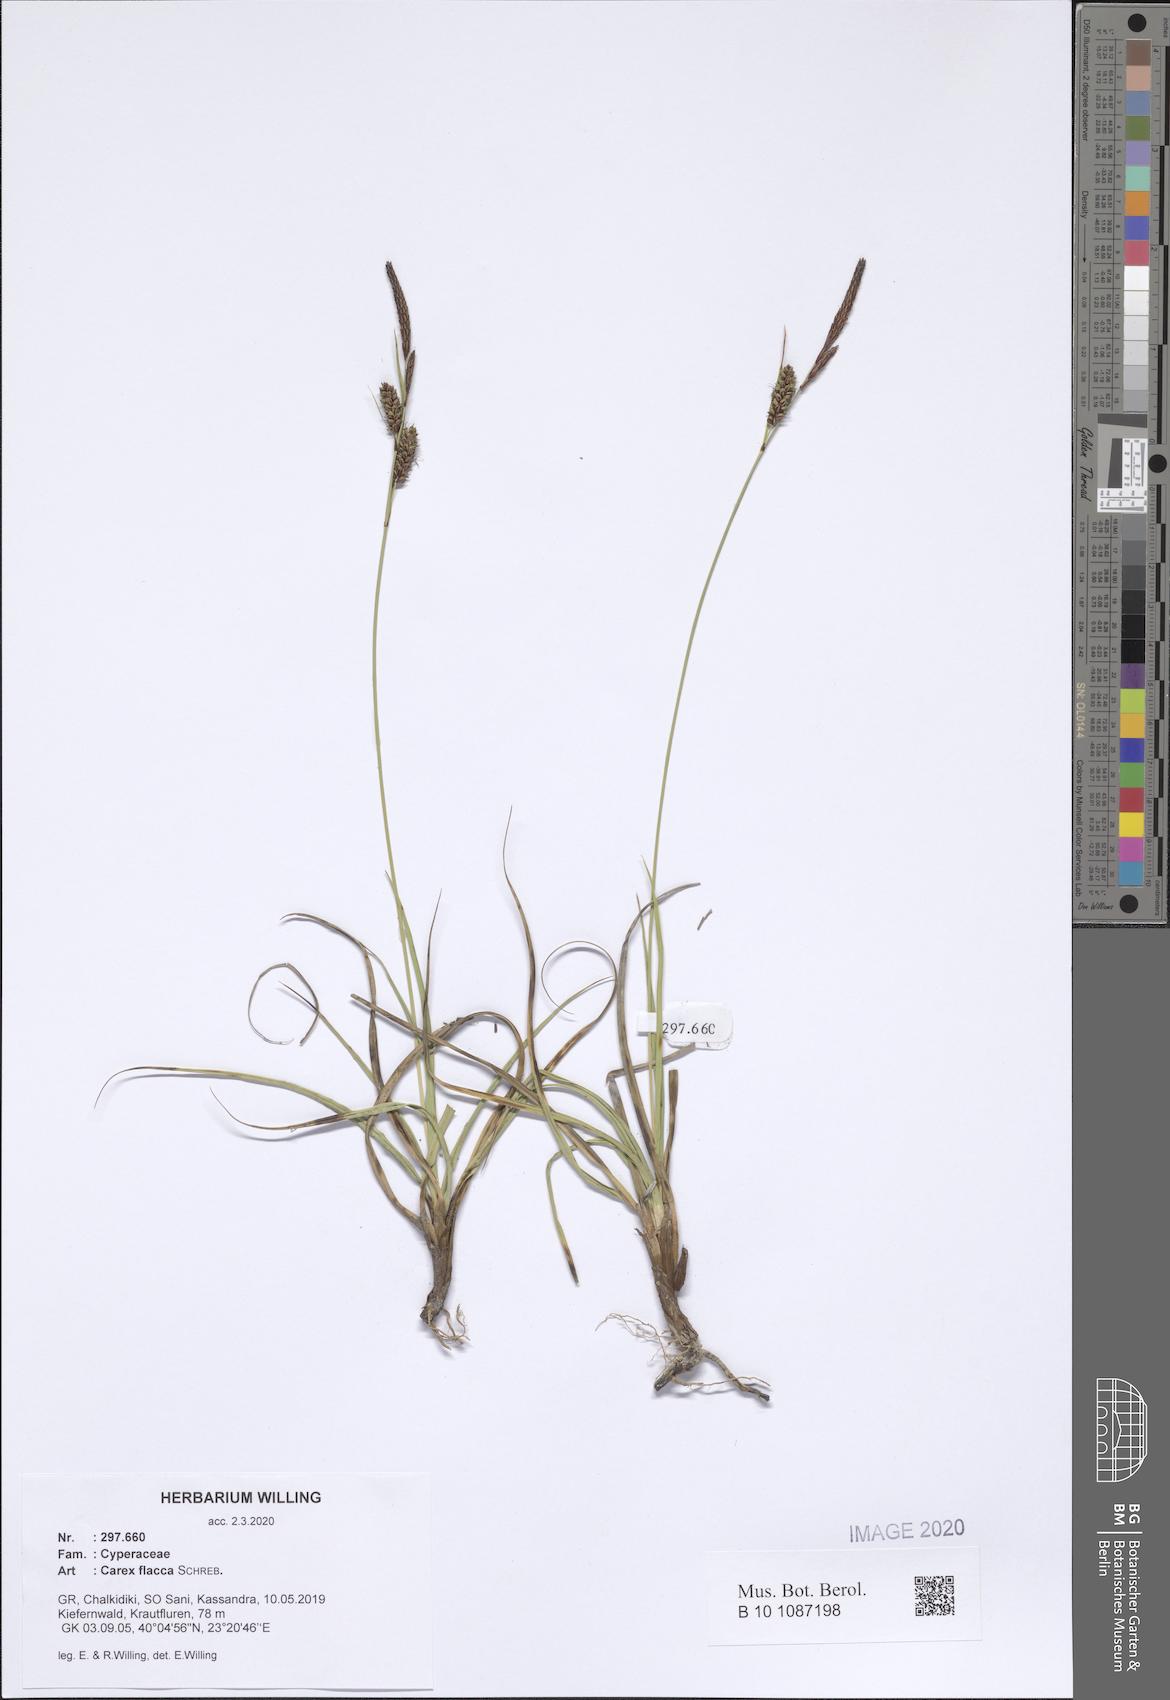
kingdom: Plantae
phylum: Tracheophyta
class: Liliopsida
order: Poales
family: Cyperaceae
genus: Carex
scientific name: Carex flacca
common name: Glaucous sedge
